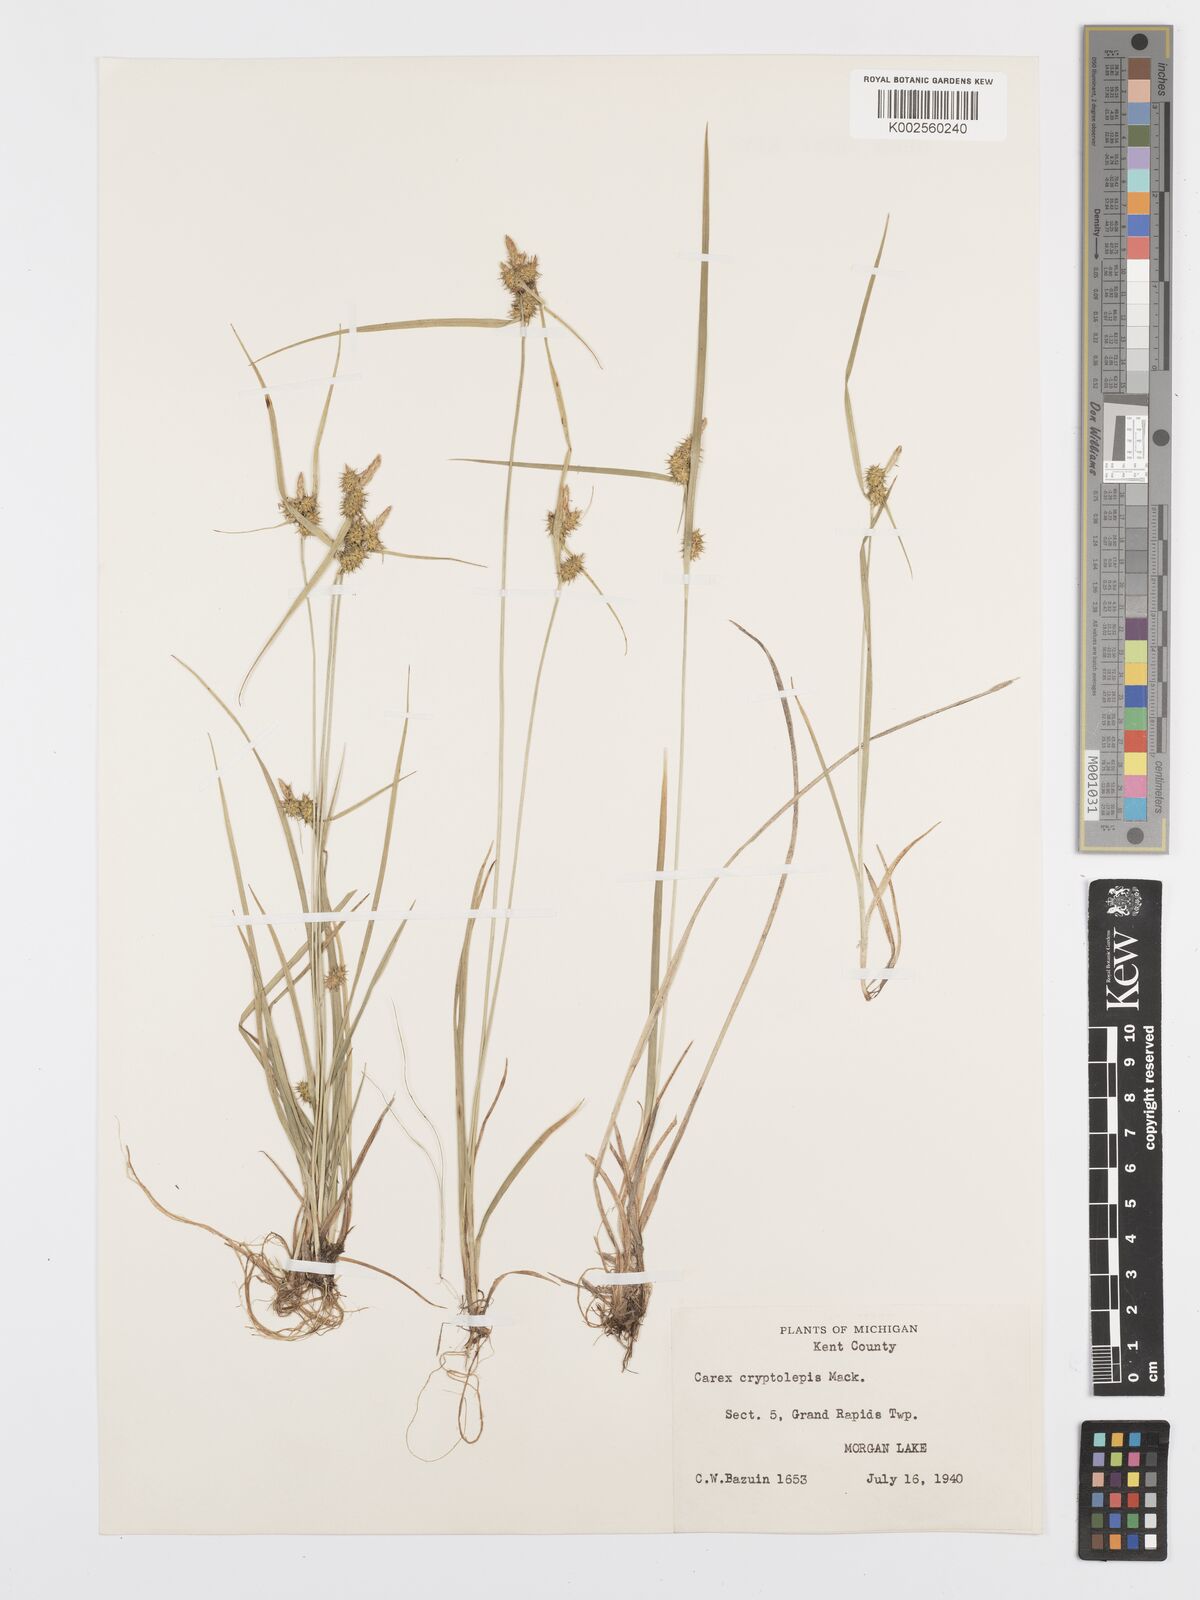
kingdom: Plantae
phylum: Tracheophyta
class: Liliopsida
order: Poales
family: Cyperaceae
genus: Carex
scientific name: Carex cryptolepis
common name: Northeastern sedge
